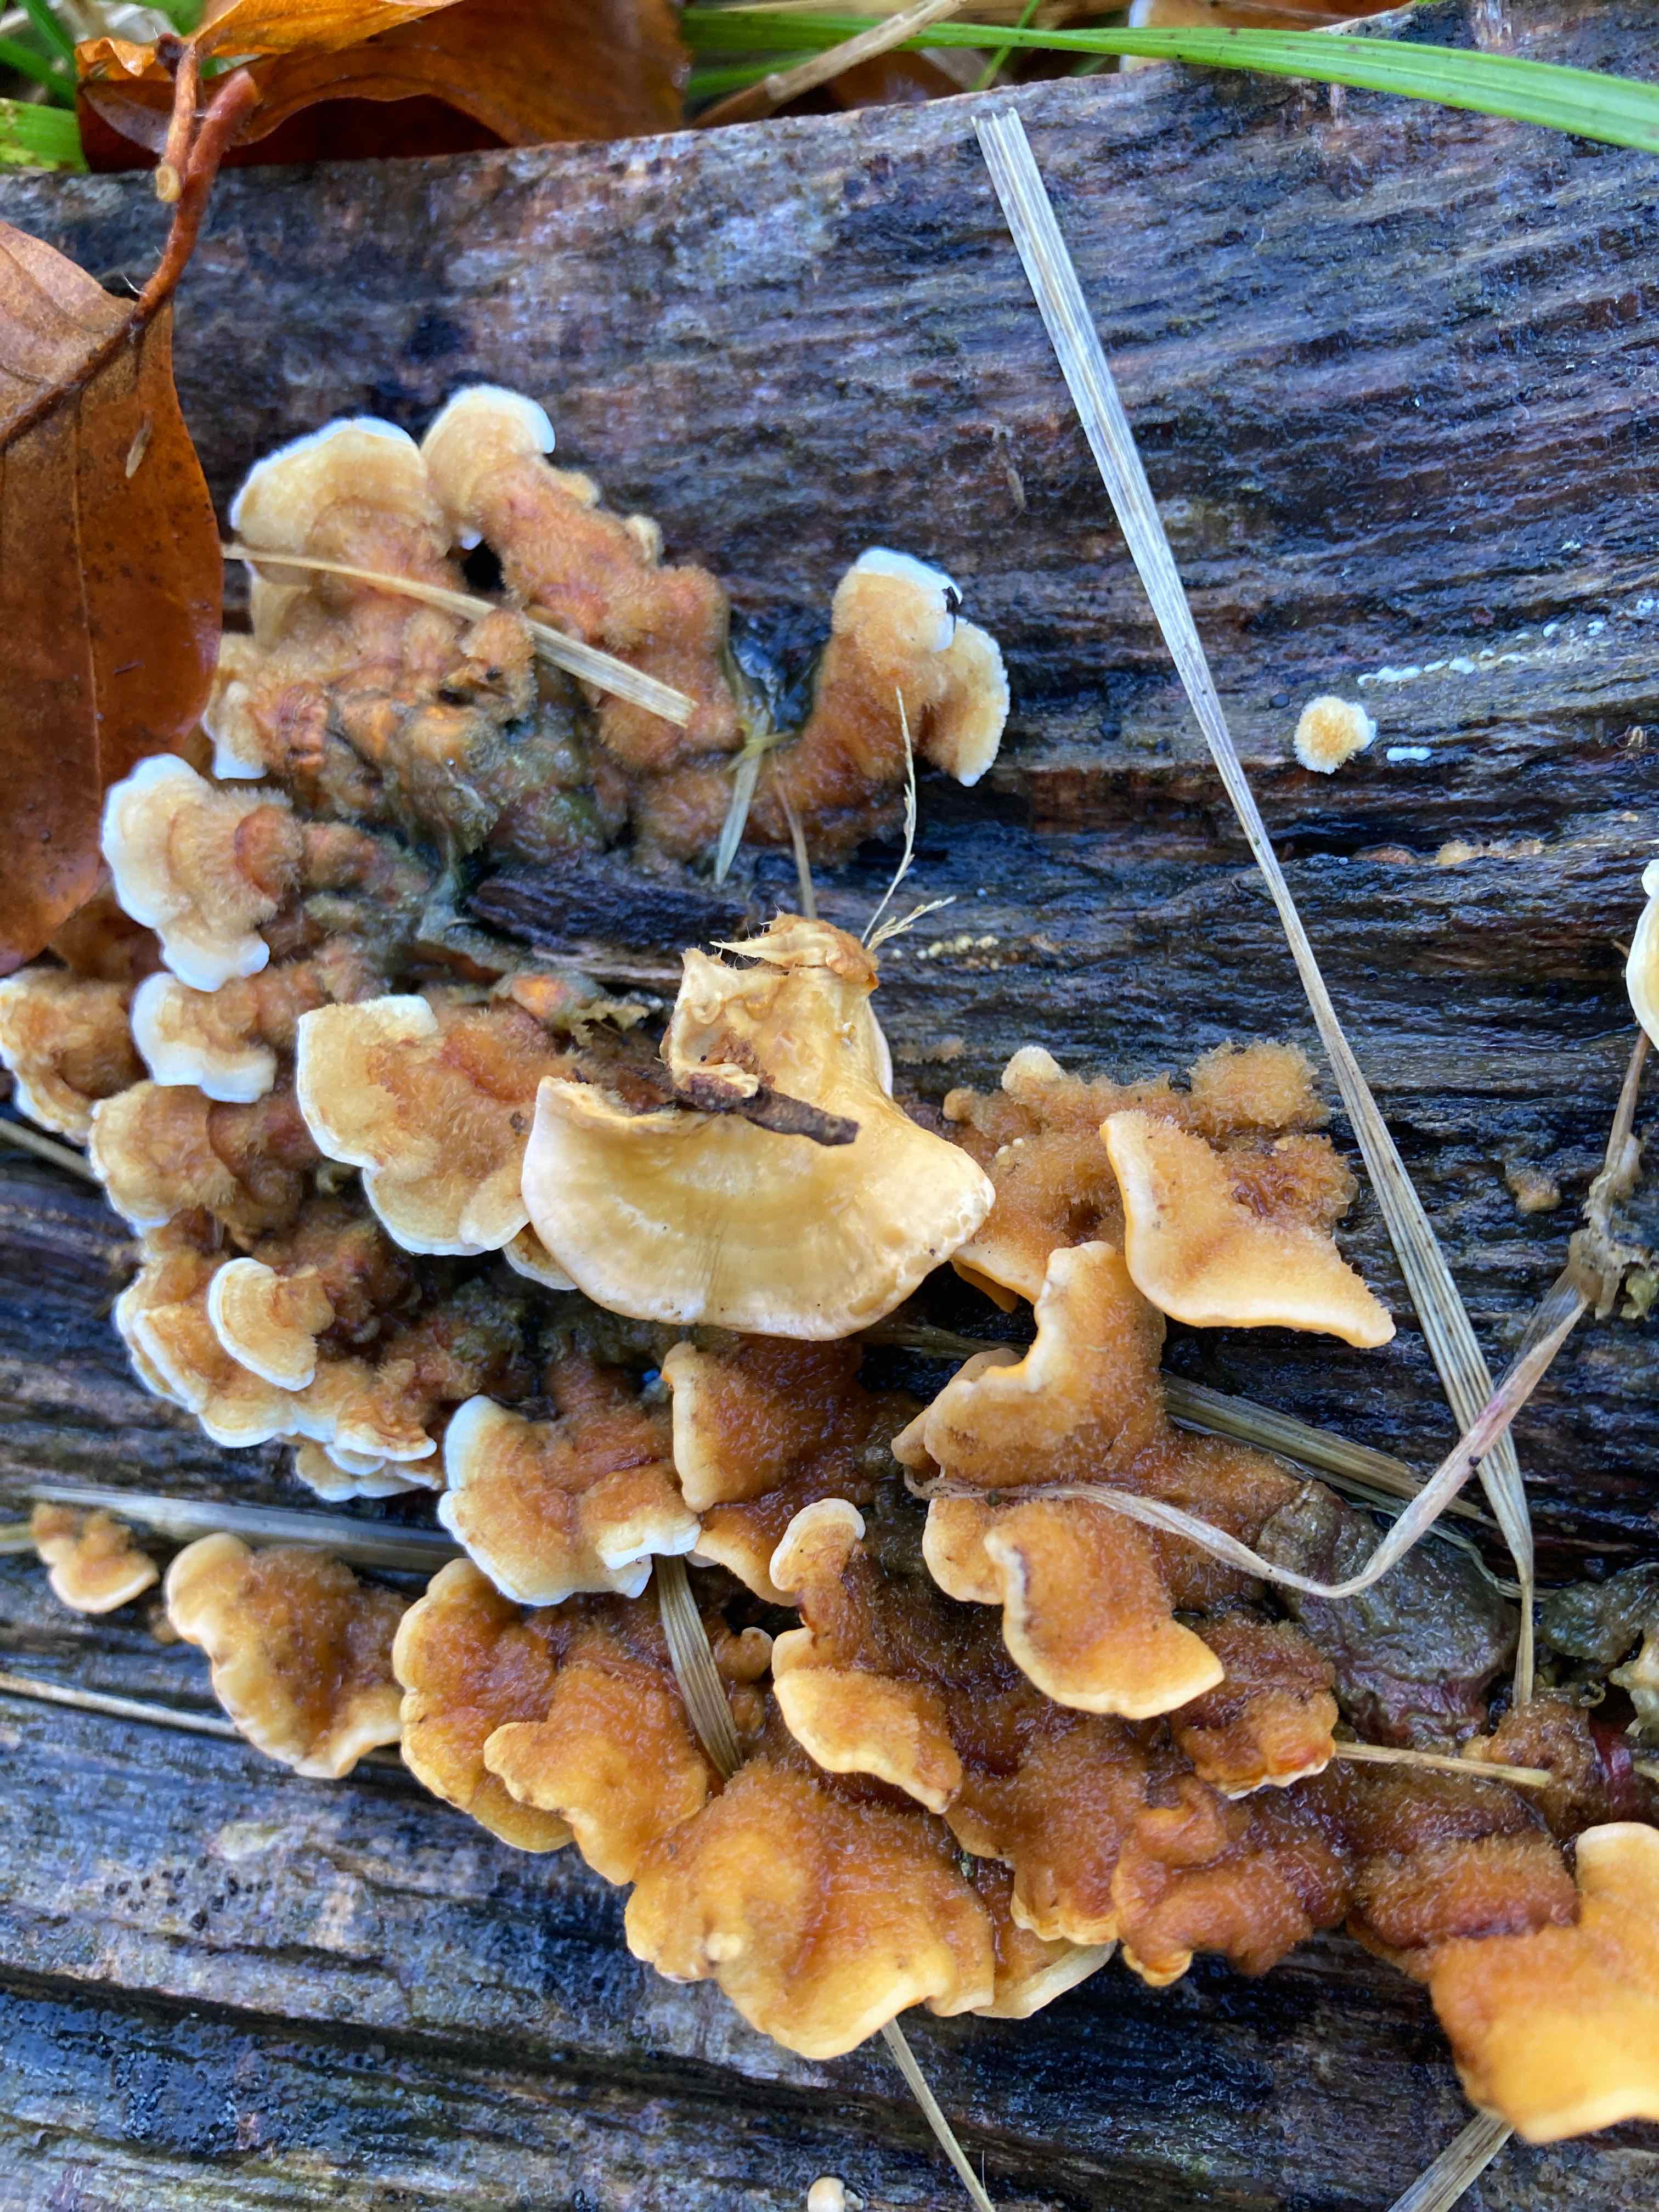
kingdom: Fungi
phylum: Basidiomycota
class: Agaricomycetes
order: Russulales
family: Stereaceae
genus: Stereum
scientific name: Stereum hirsutum
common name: håret lædersvamp
